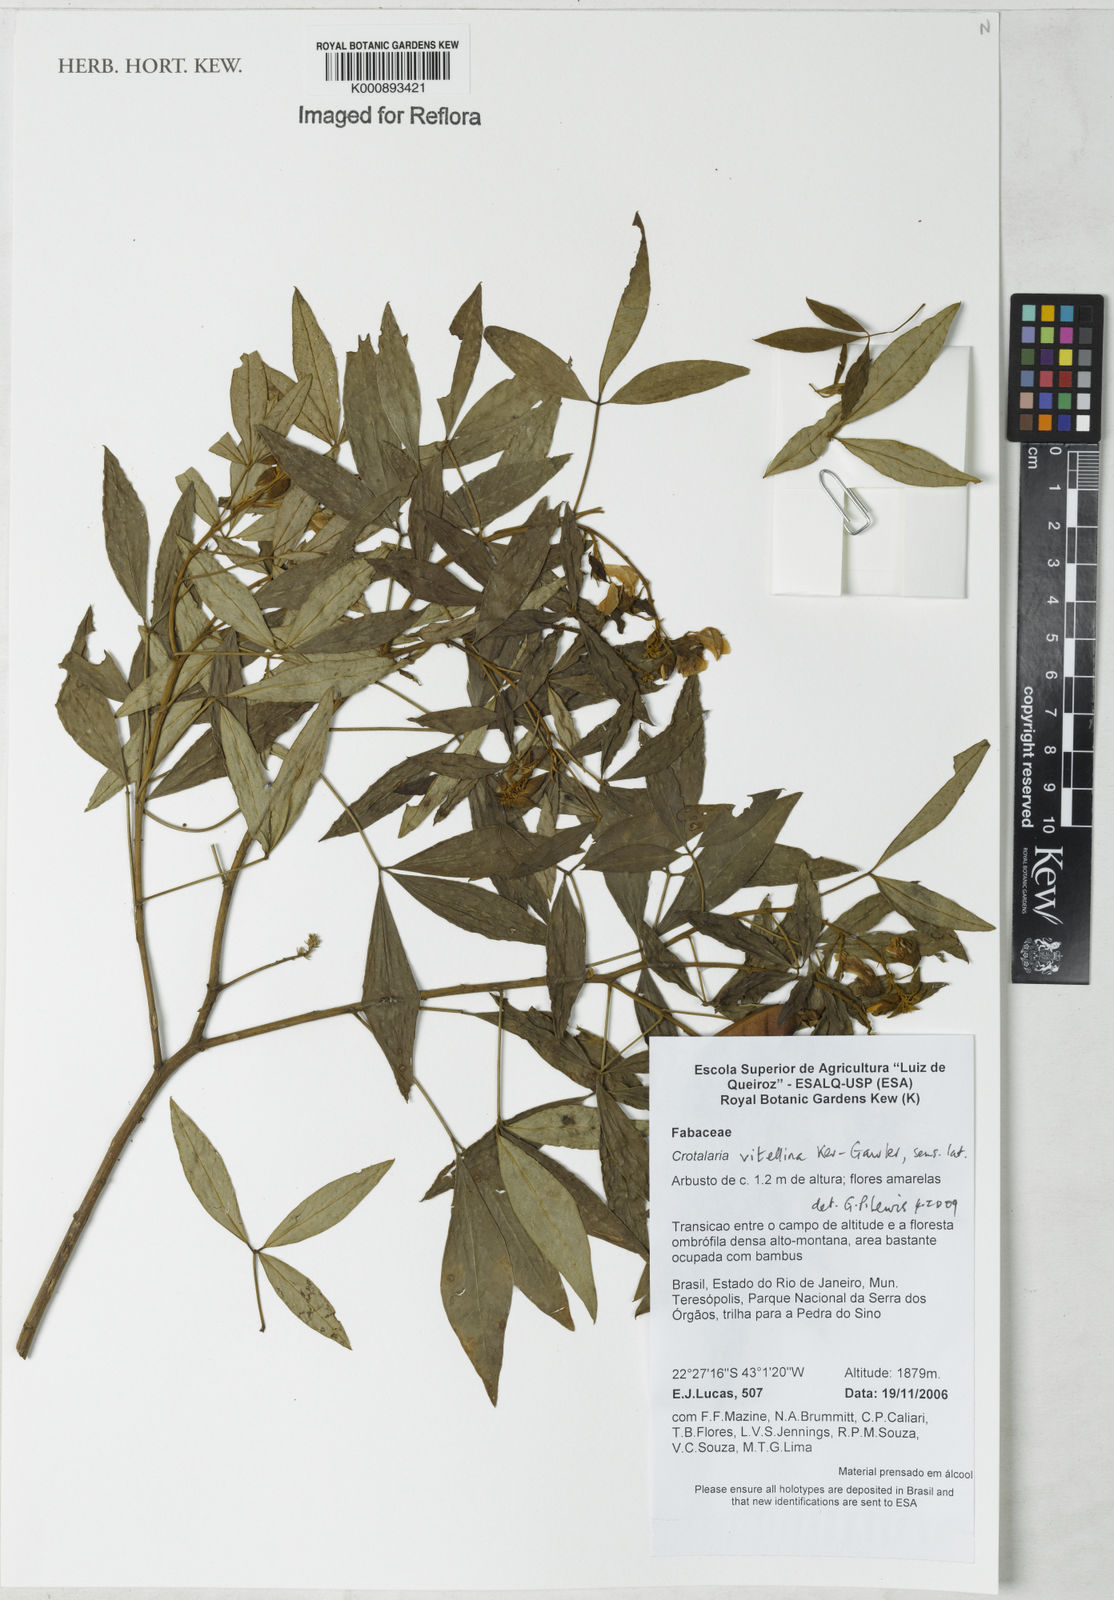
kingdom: Plantae
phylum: Tracheophyta
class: Magnoliopsida
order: Fabales
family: Fabaceae
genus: Crotalaria
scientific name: Crotalaria vitellina
